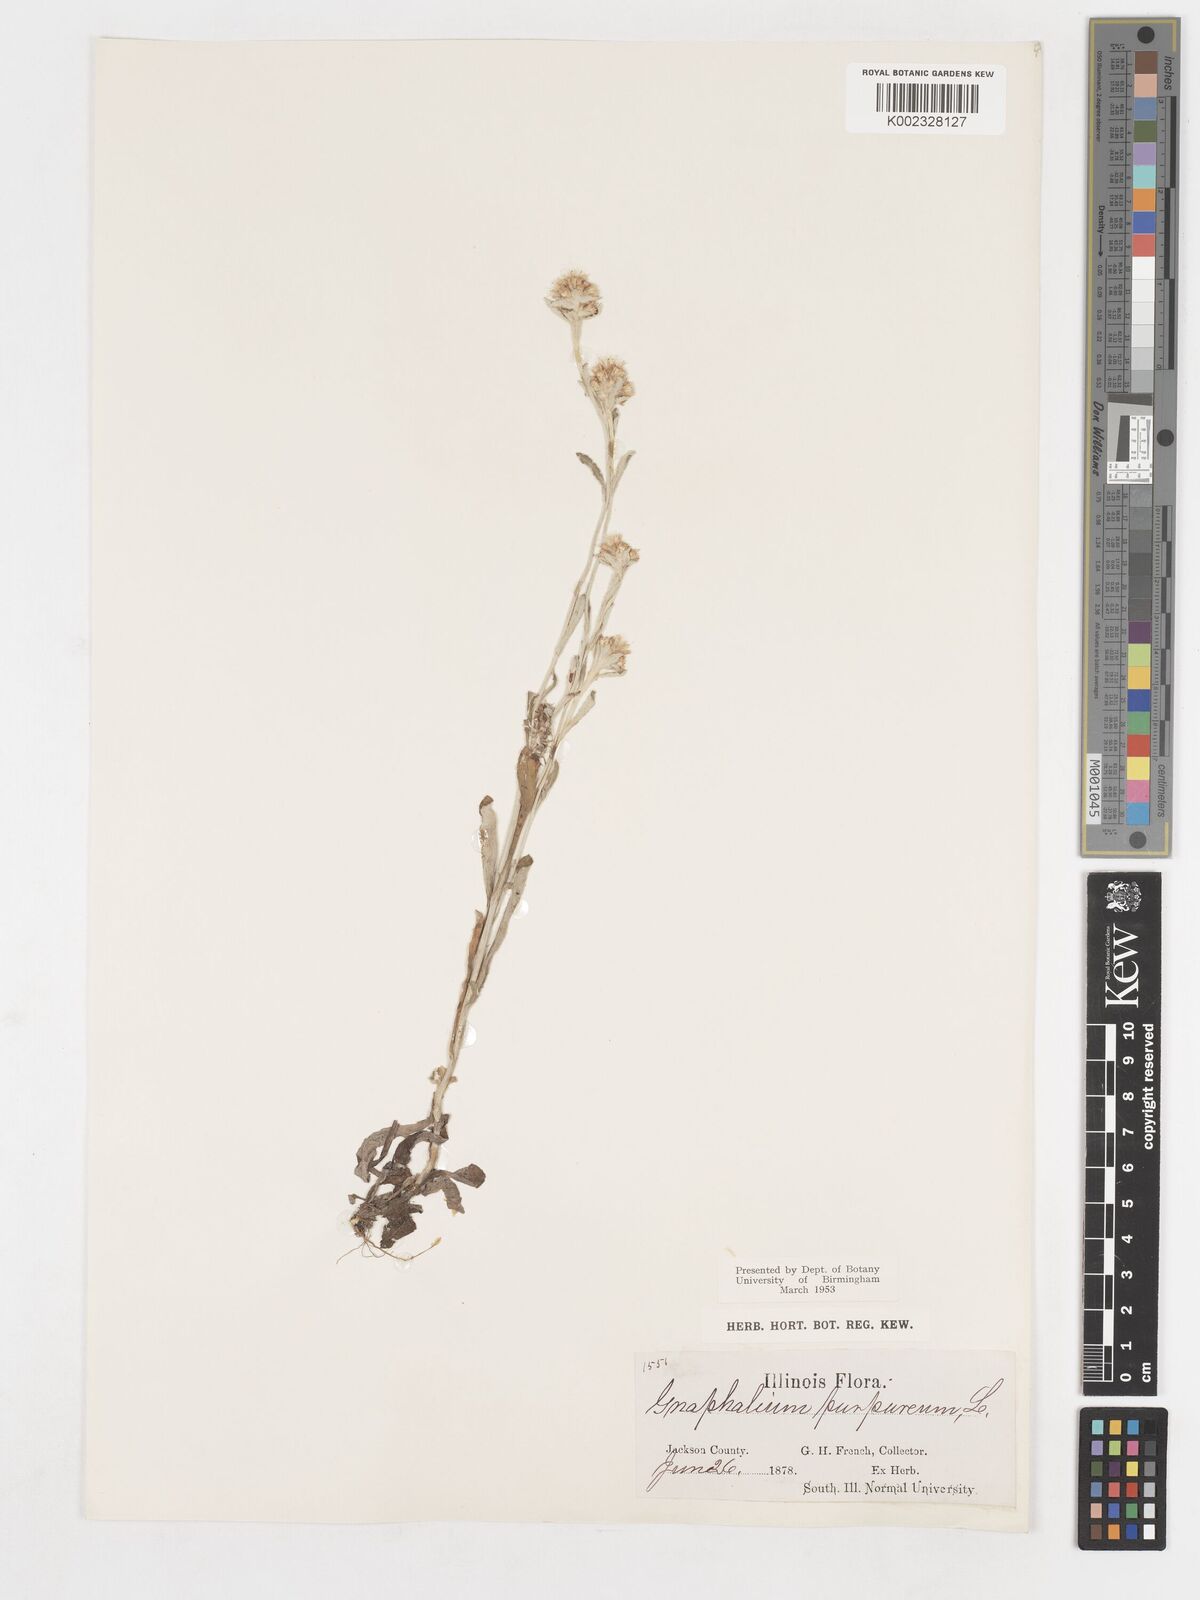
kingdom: Plantae
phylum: Tracheophyta
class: Magnoliopsida
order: Asterales
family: Asteraceae
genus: Gamochaeta
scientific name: Gamochaeta purpurea
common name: Purple cudweed
